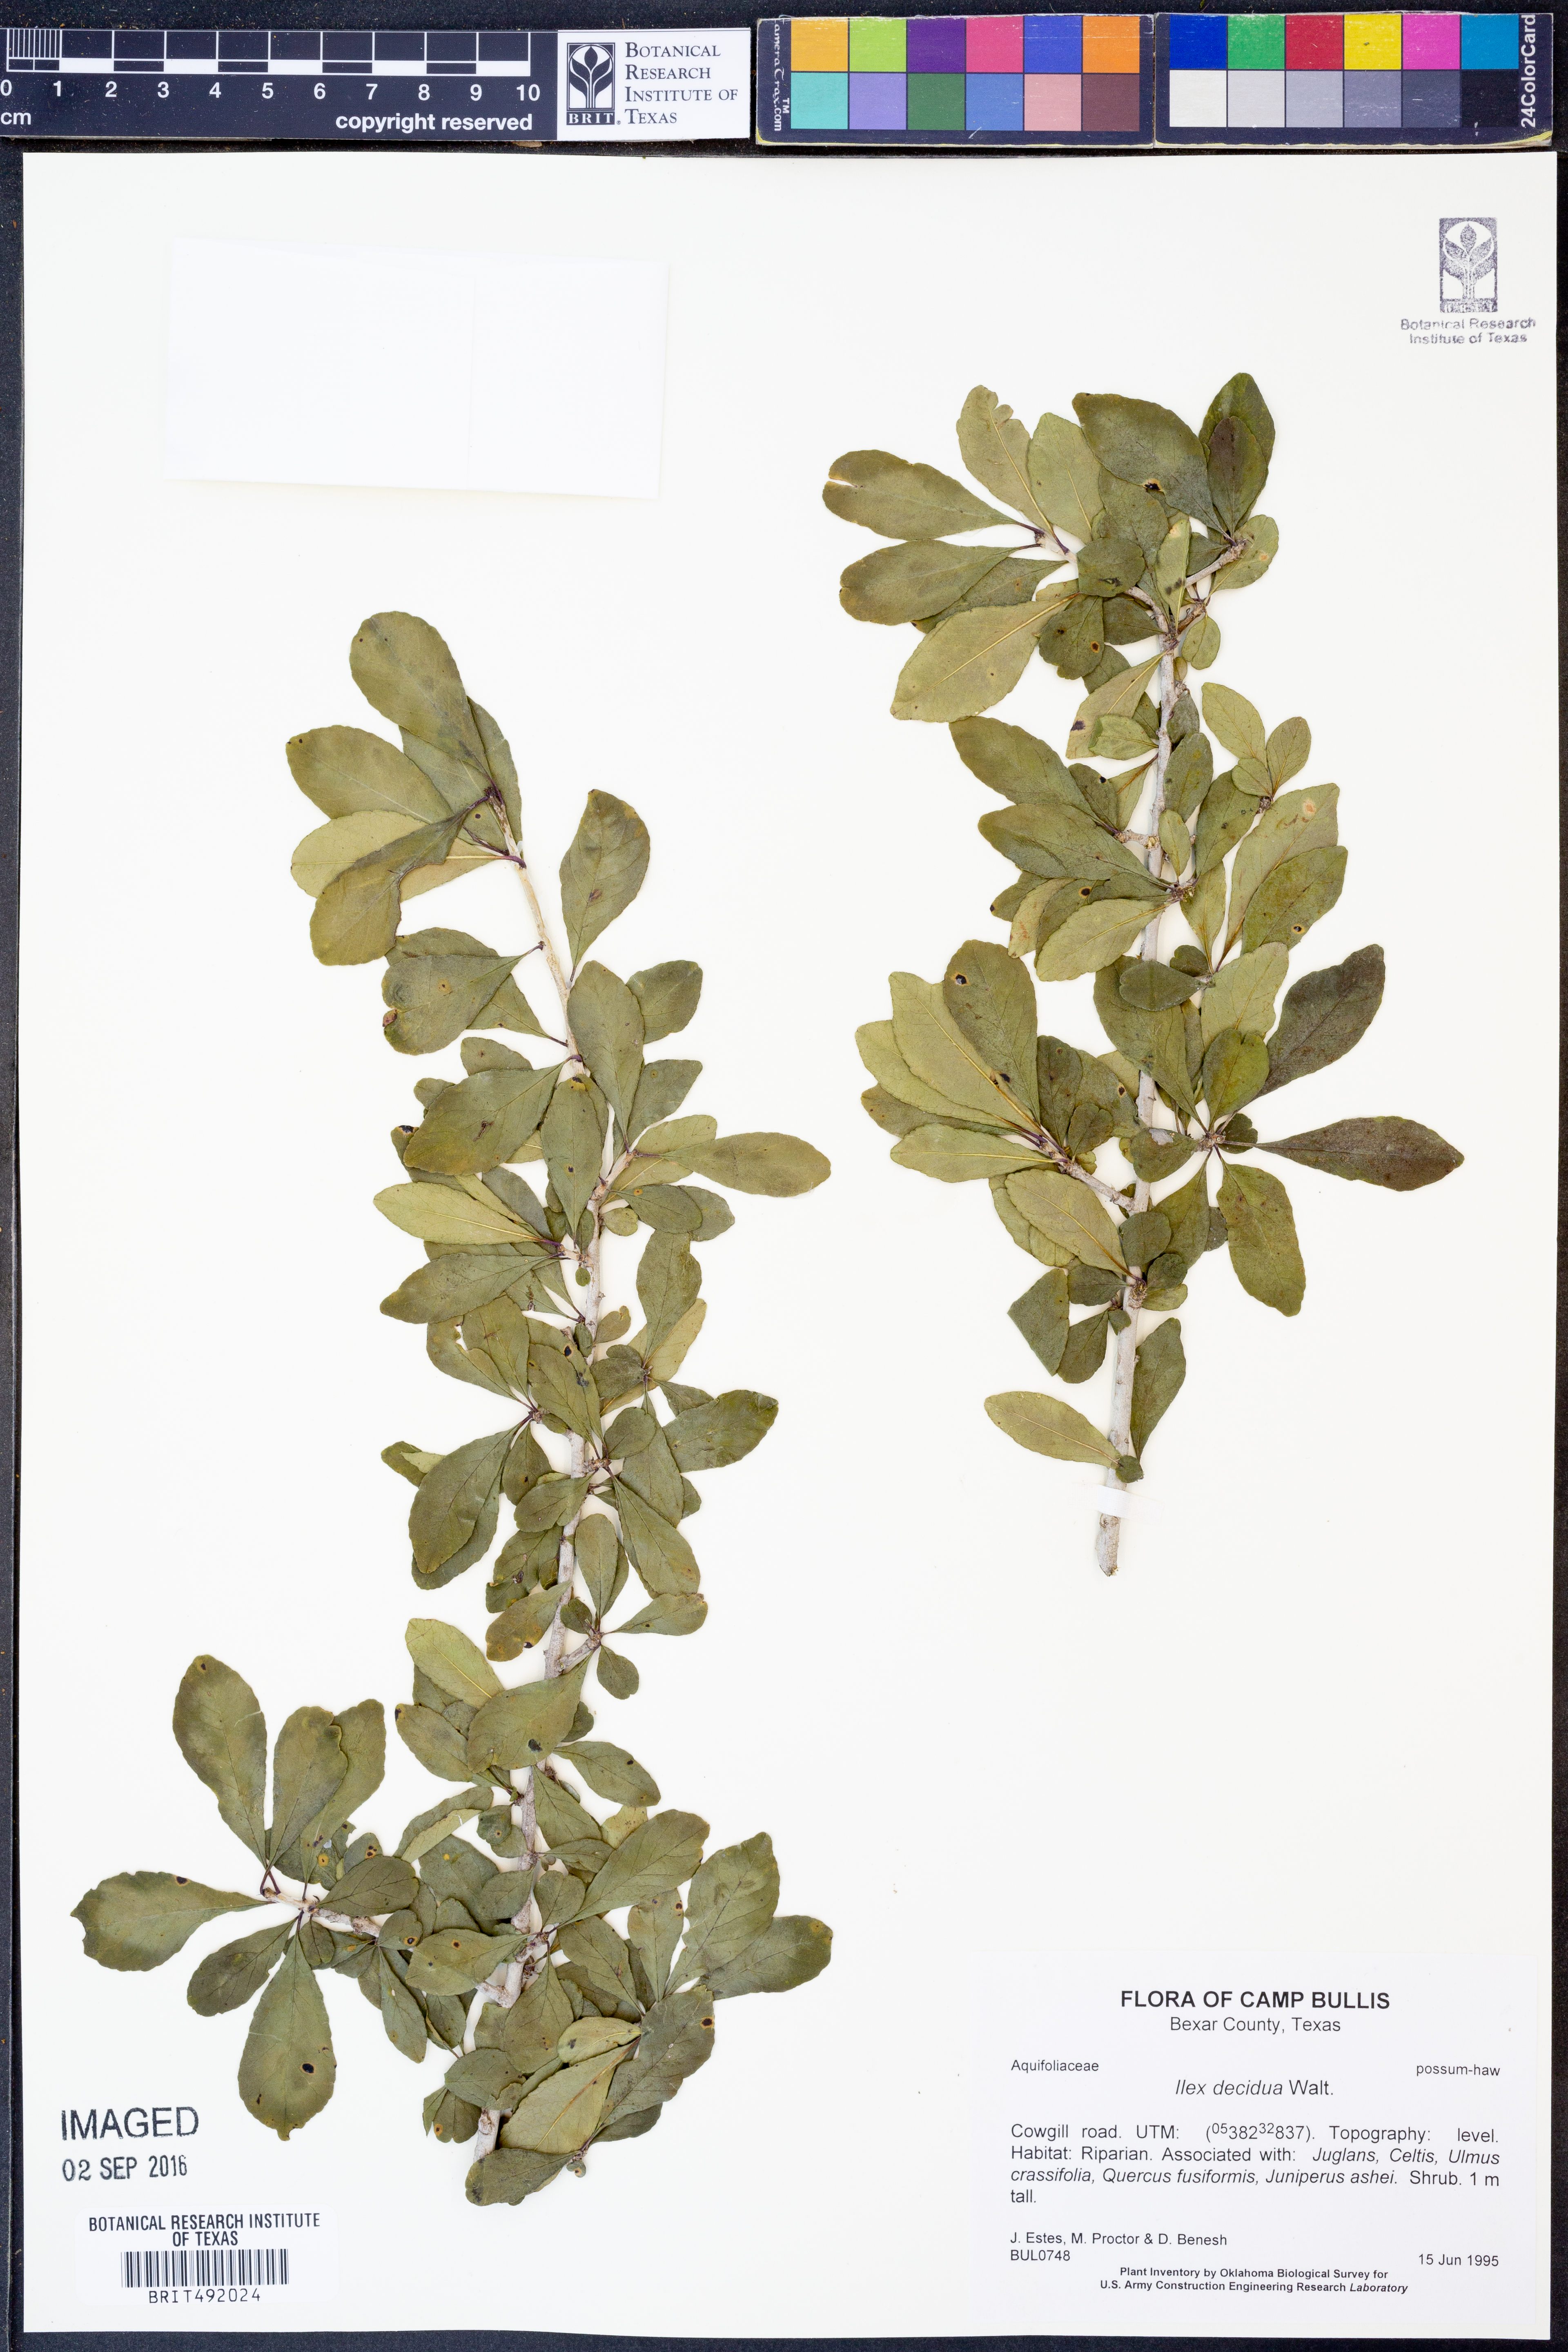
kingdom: Plantae
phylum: Tracheophyta
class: Magnoliopsida
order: Aquifoliales
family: Aquifoliaceae
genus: Ilex
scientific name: Ilex decidua
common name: Possum-haw
